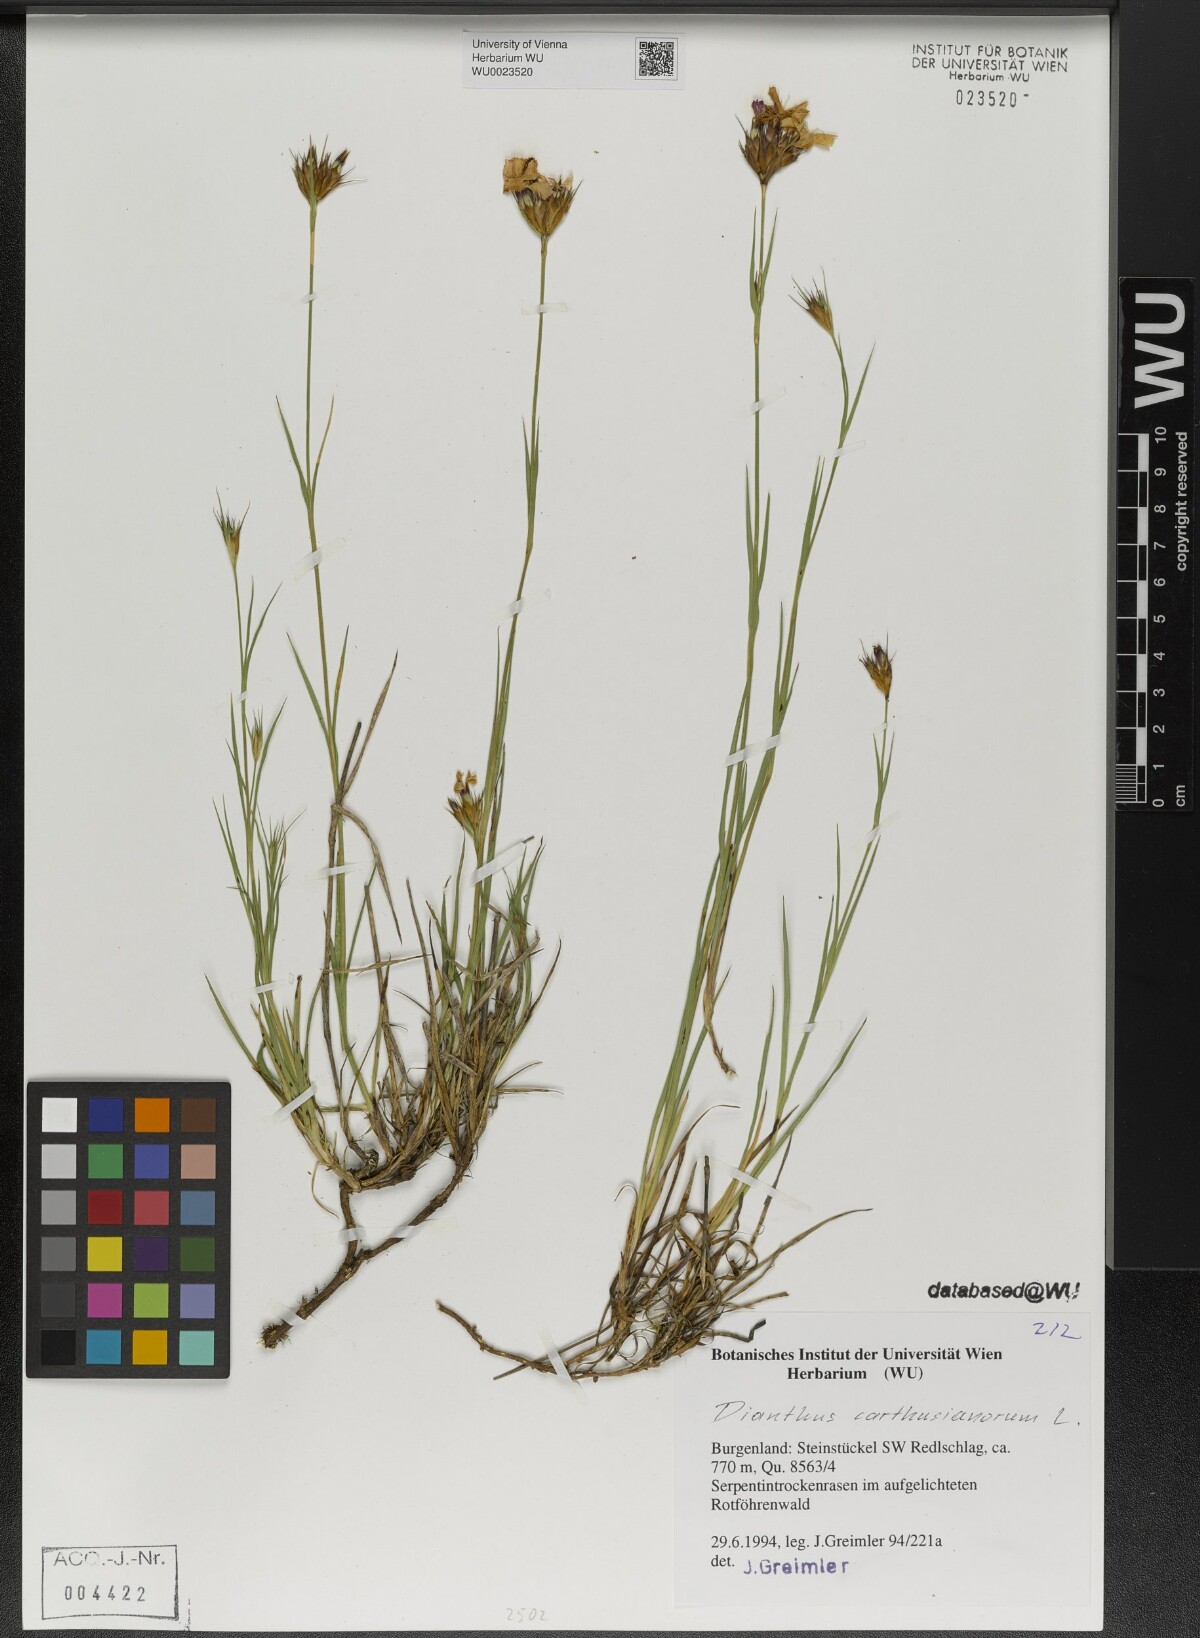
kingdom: Plantae
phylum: Tracheophyta
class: Magnoliopsida
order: Caryophyllales
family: Caryophyllaceae
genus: Dianthus
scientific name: Dianthus carthusianorum
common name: Carthusian pink
